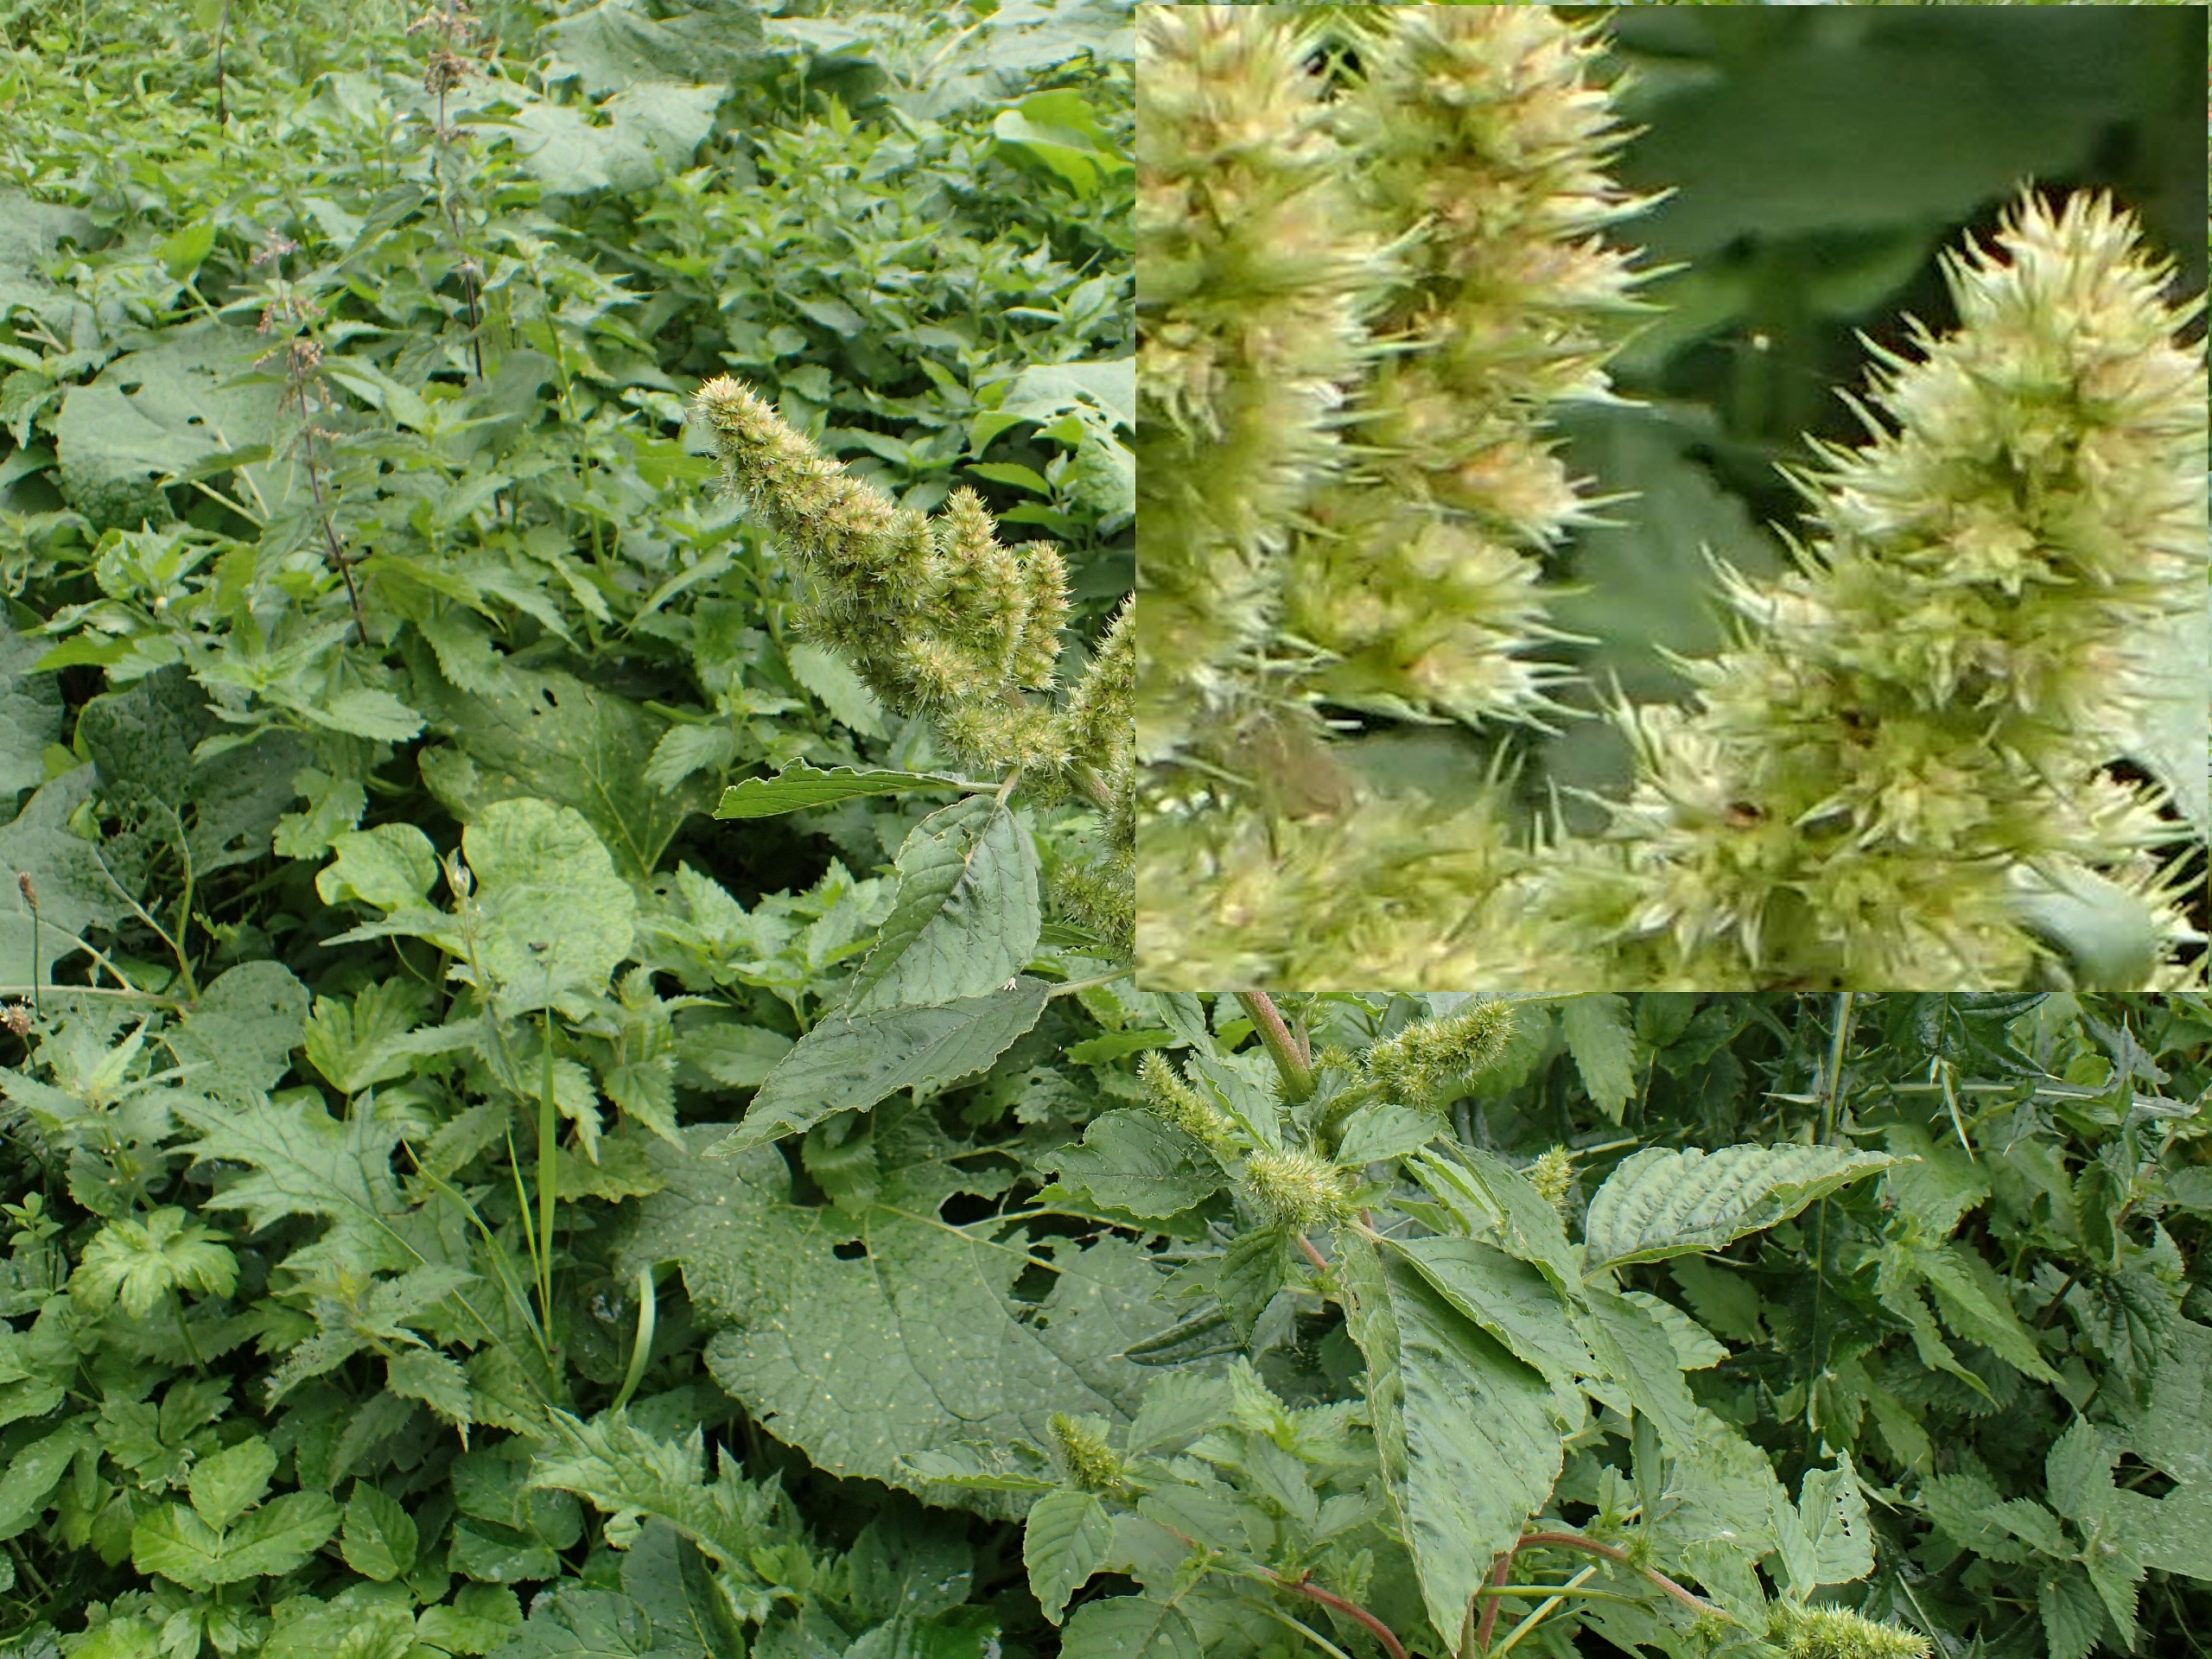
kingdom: Plantae
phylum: Tracheophyta
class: Magnoliopsida
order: Caryophyllales
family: Amaranthaceae
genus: Amaranthus
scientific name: Amaranthus retroflexus
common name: Opret amarant
